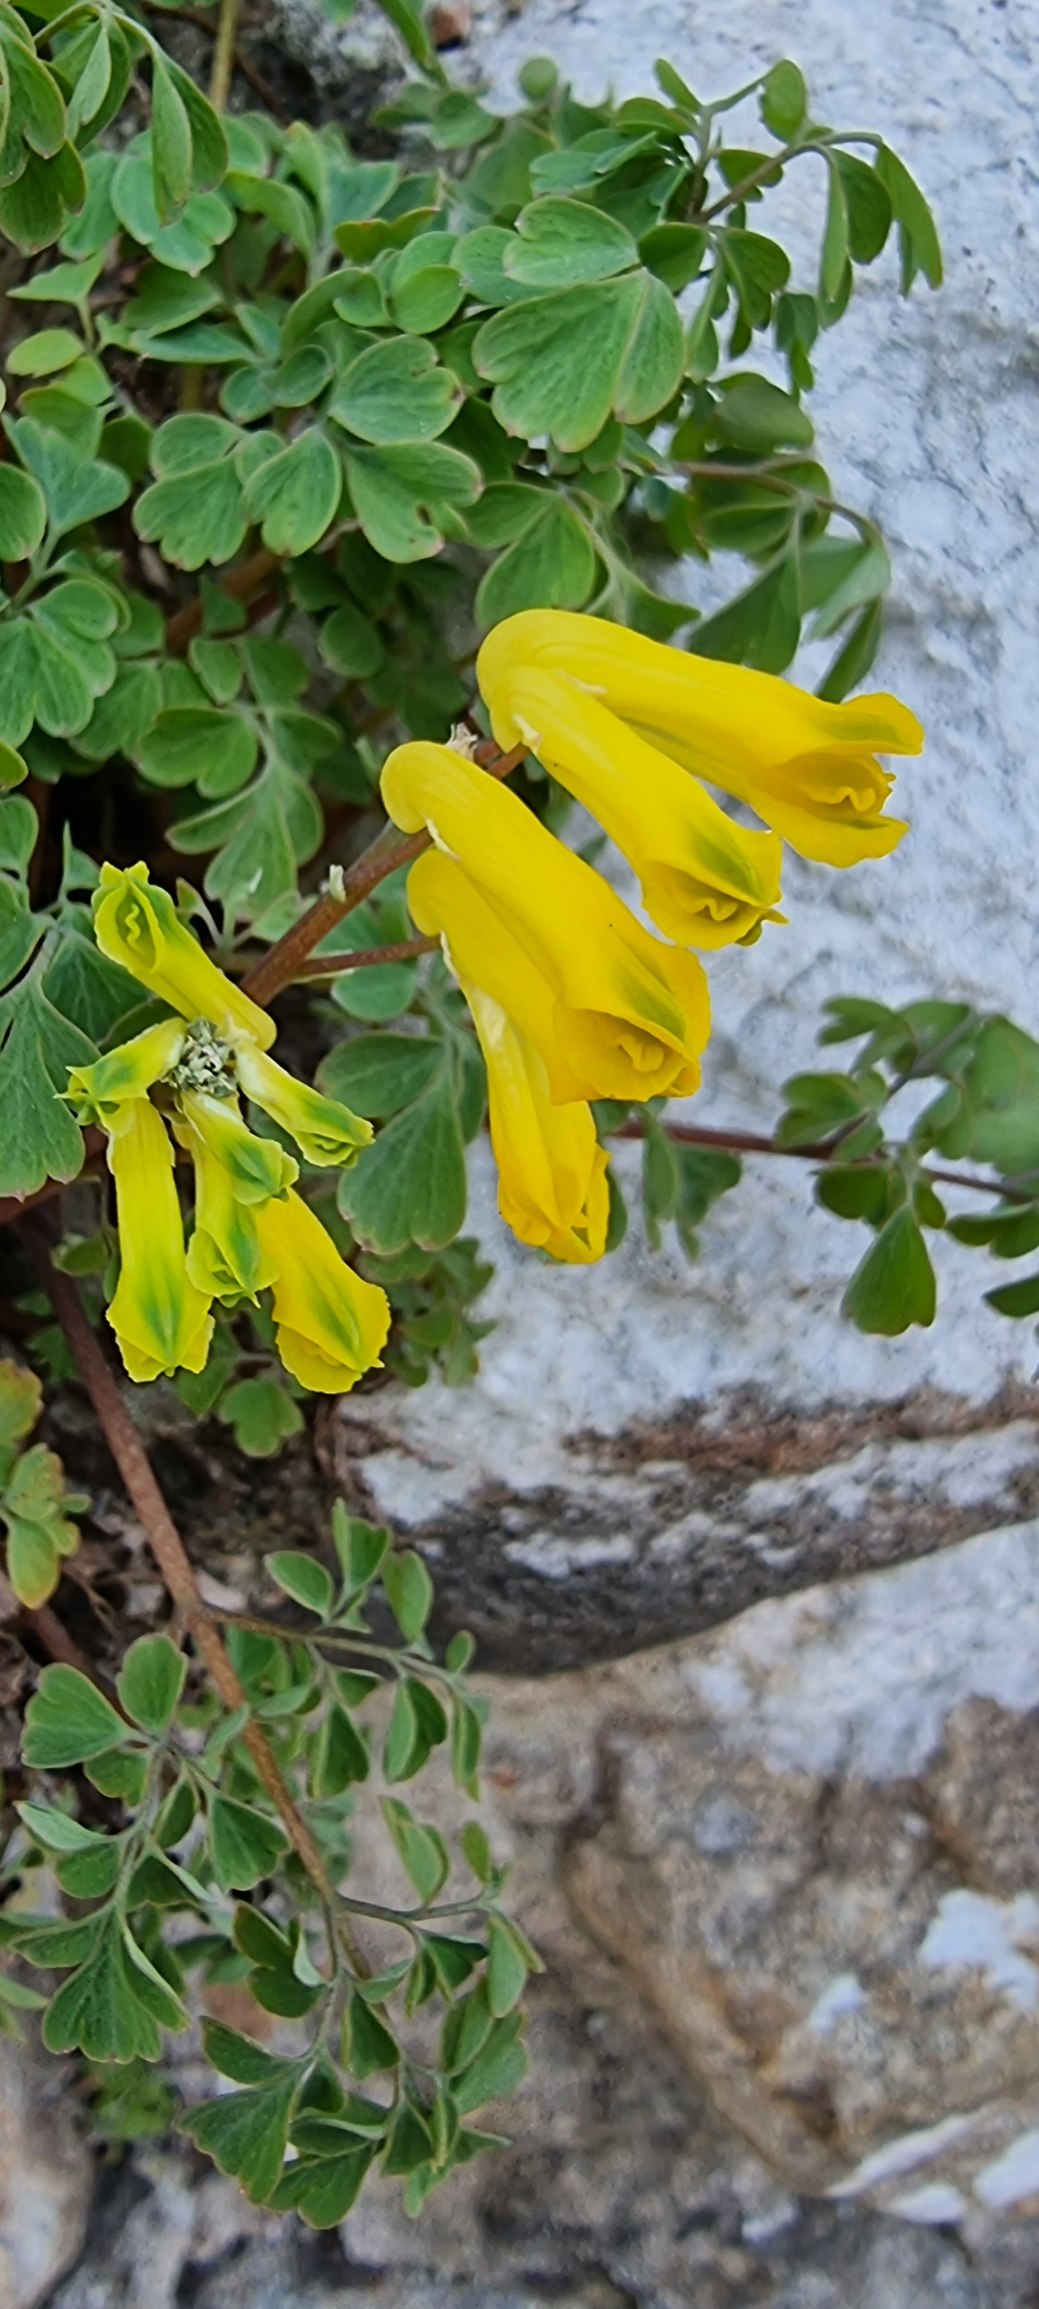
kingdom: Plantae
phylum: Tracheophyta
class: Magnoliopsida
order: Ranunculales
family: Papaveraceae
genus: Pseudofumaria
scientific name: Pseudofumaria lutea
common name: Gul lærkespore
